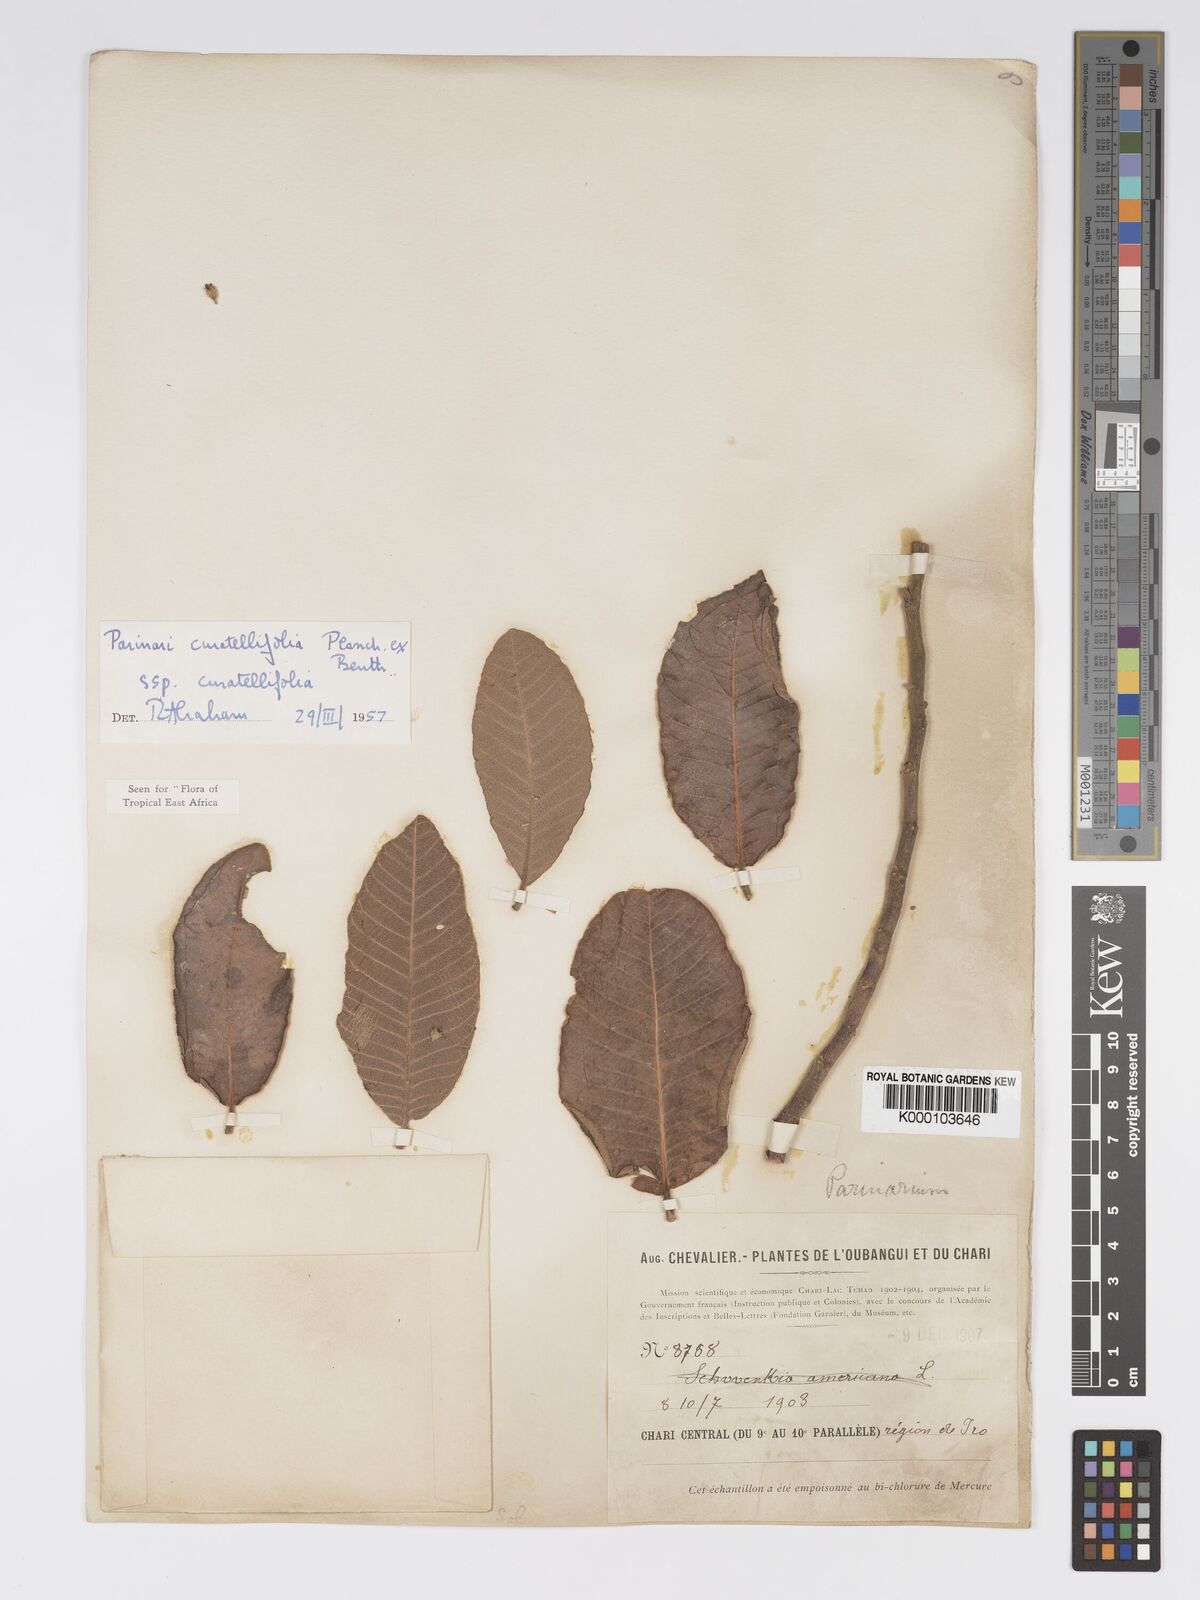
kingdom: Plantae
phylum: Tracheophyta
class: Magnoliopsida
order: Malpighiales
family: Chrysobalanaceae
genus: Parinari
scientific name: Parinari curatellifolia
